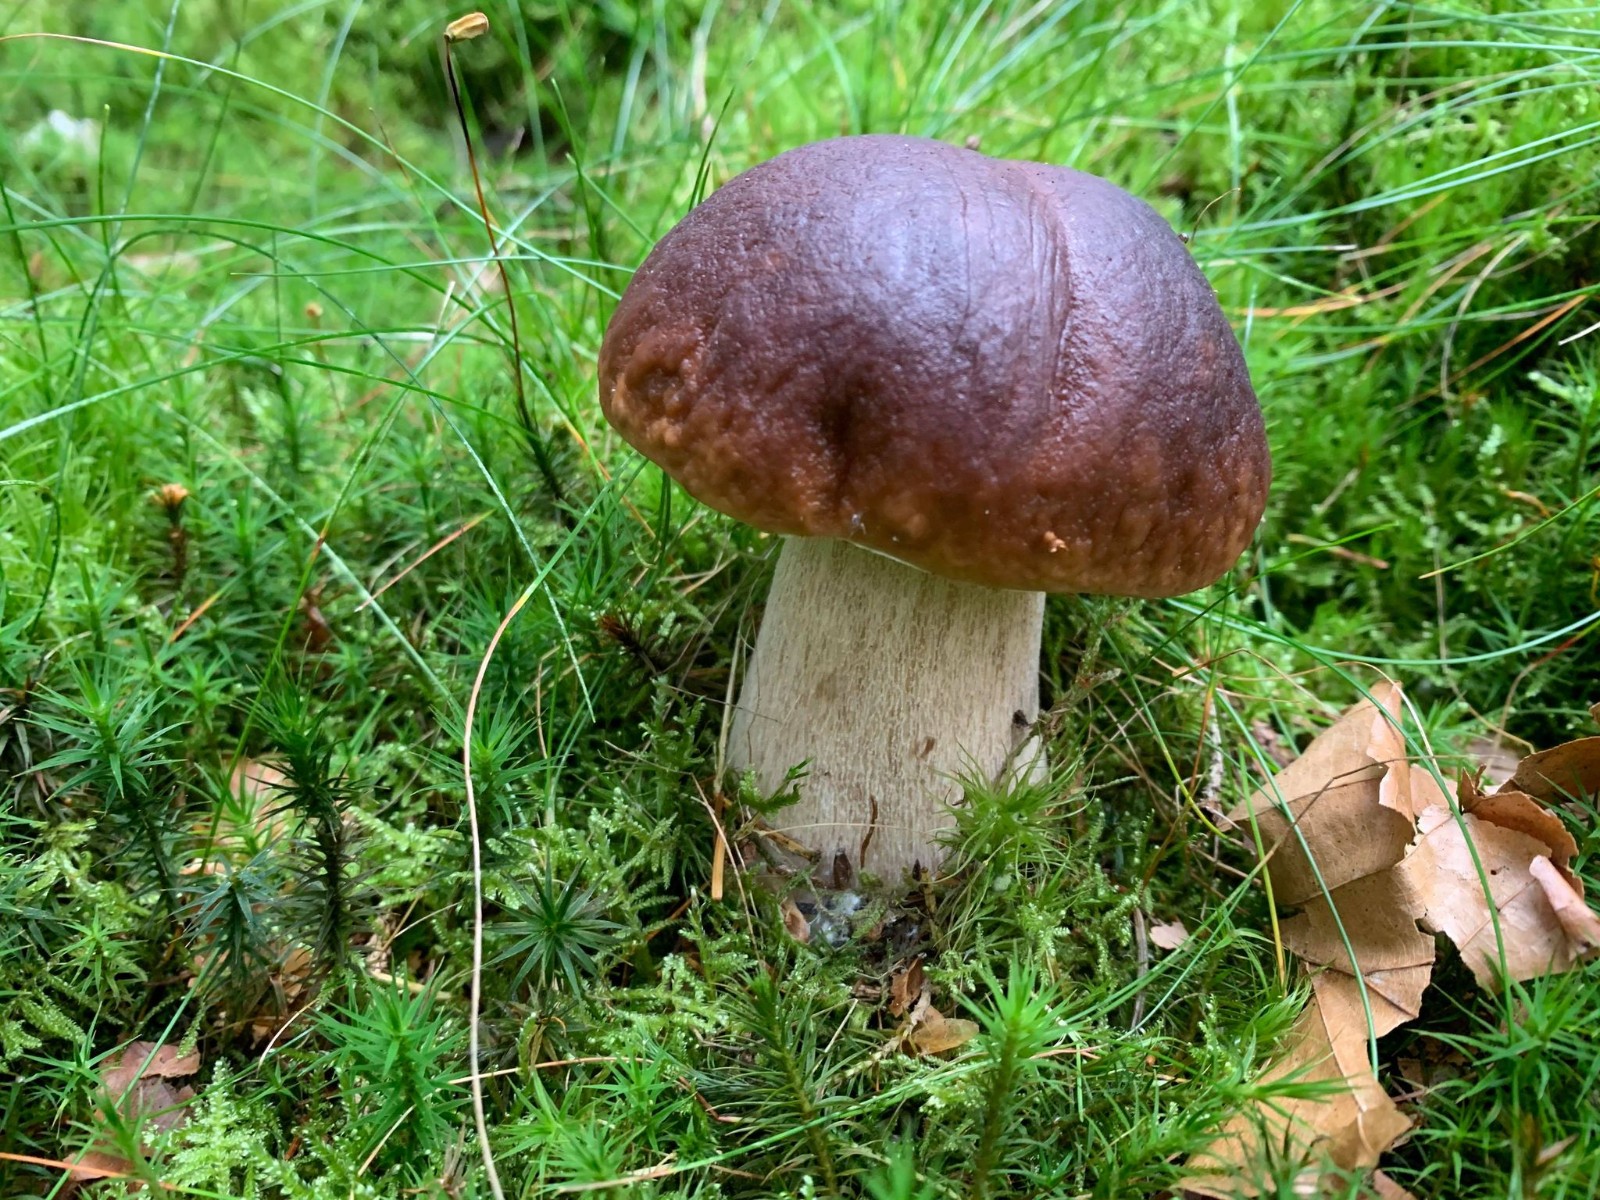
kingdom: Fungi
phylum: Basidiomycota
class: Agaricomycetes
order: Boletales
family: Boletaceae
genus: Boletus
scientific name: Boletus edulis
